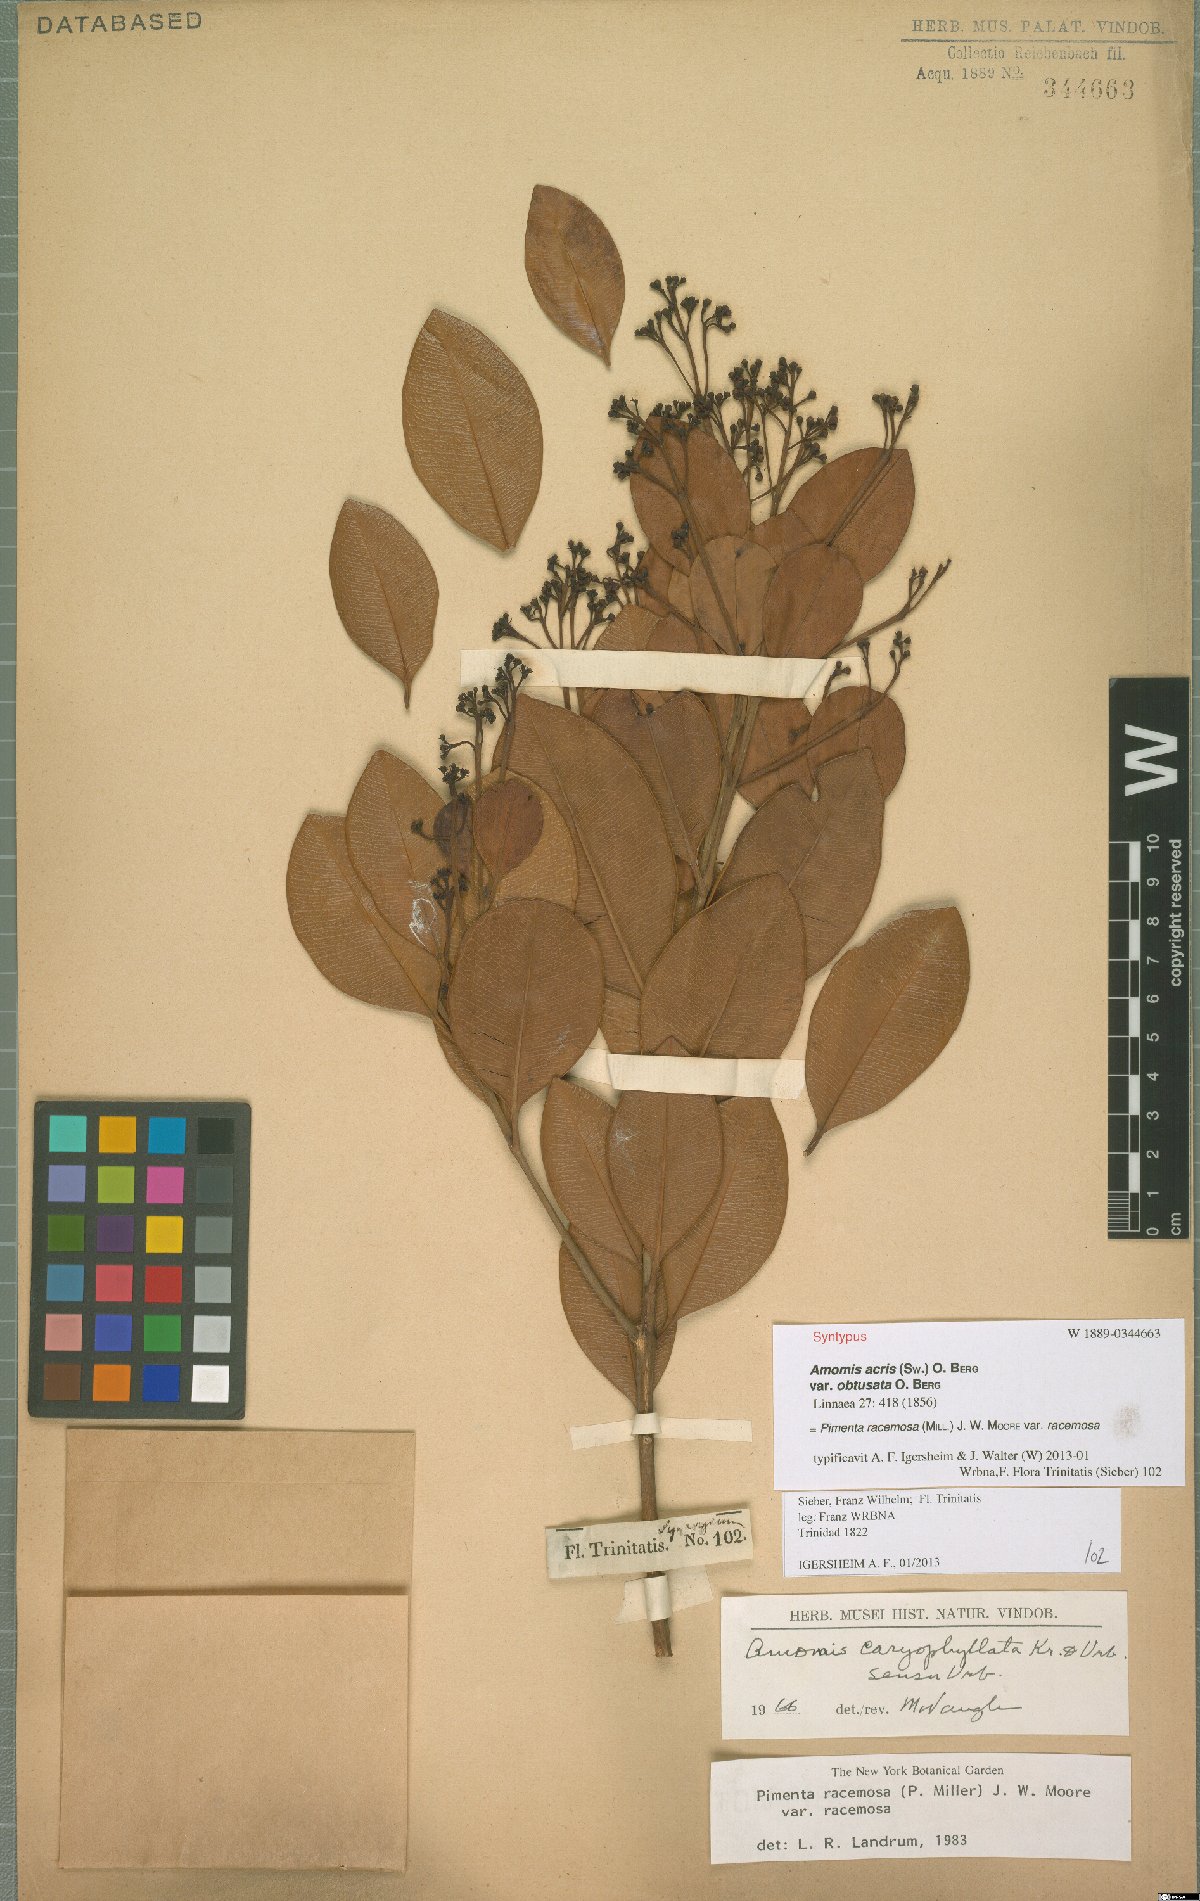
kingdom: Plantae
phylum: Tracheophyta
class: Magnoliopsida
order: Myrtales
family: Myrtaceae
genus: Pimenta
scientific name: Pimenta racemosa
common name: Bay rum tree
